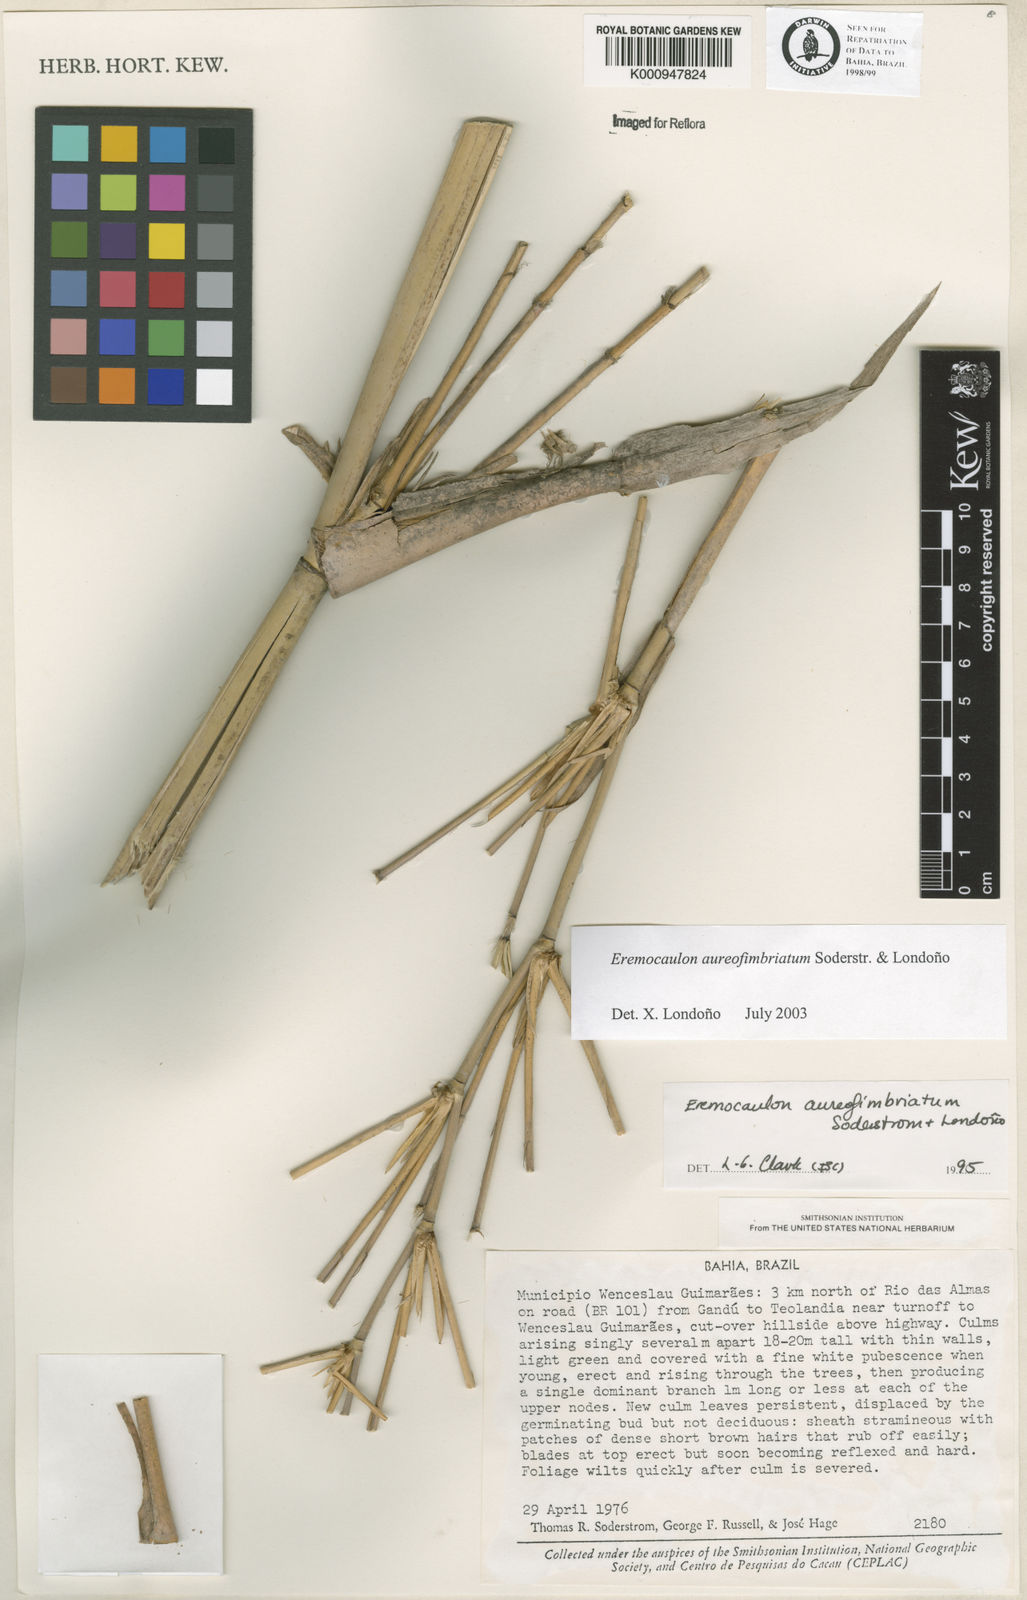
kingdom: Plantae
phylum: Tracheophyta
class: Liliopsida
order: Poales
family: Poaceae
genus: Eremocaulon
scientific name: Eremocaulon
